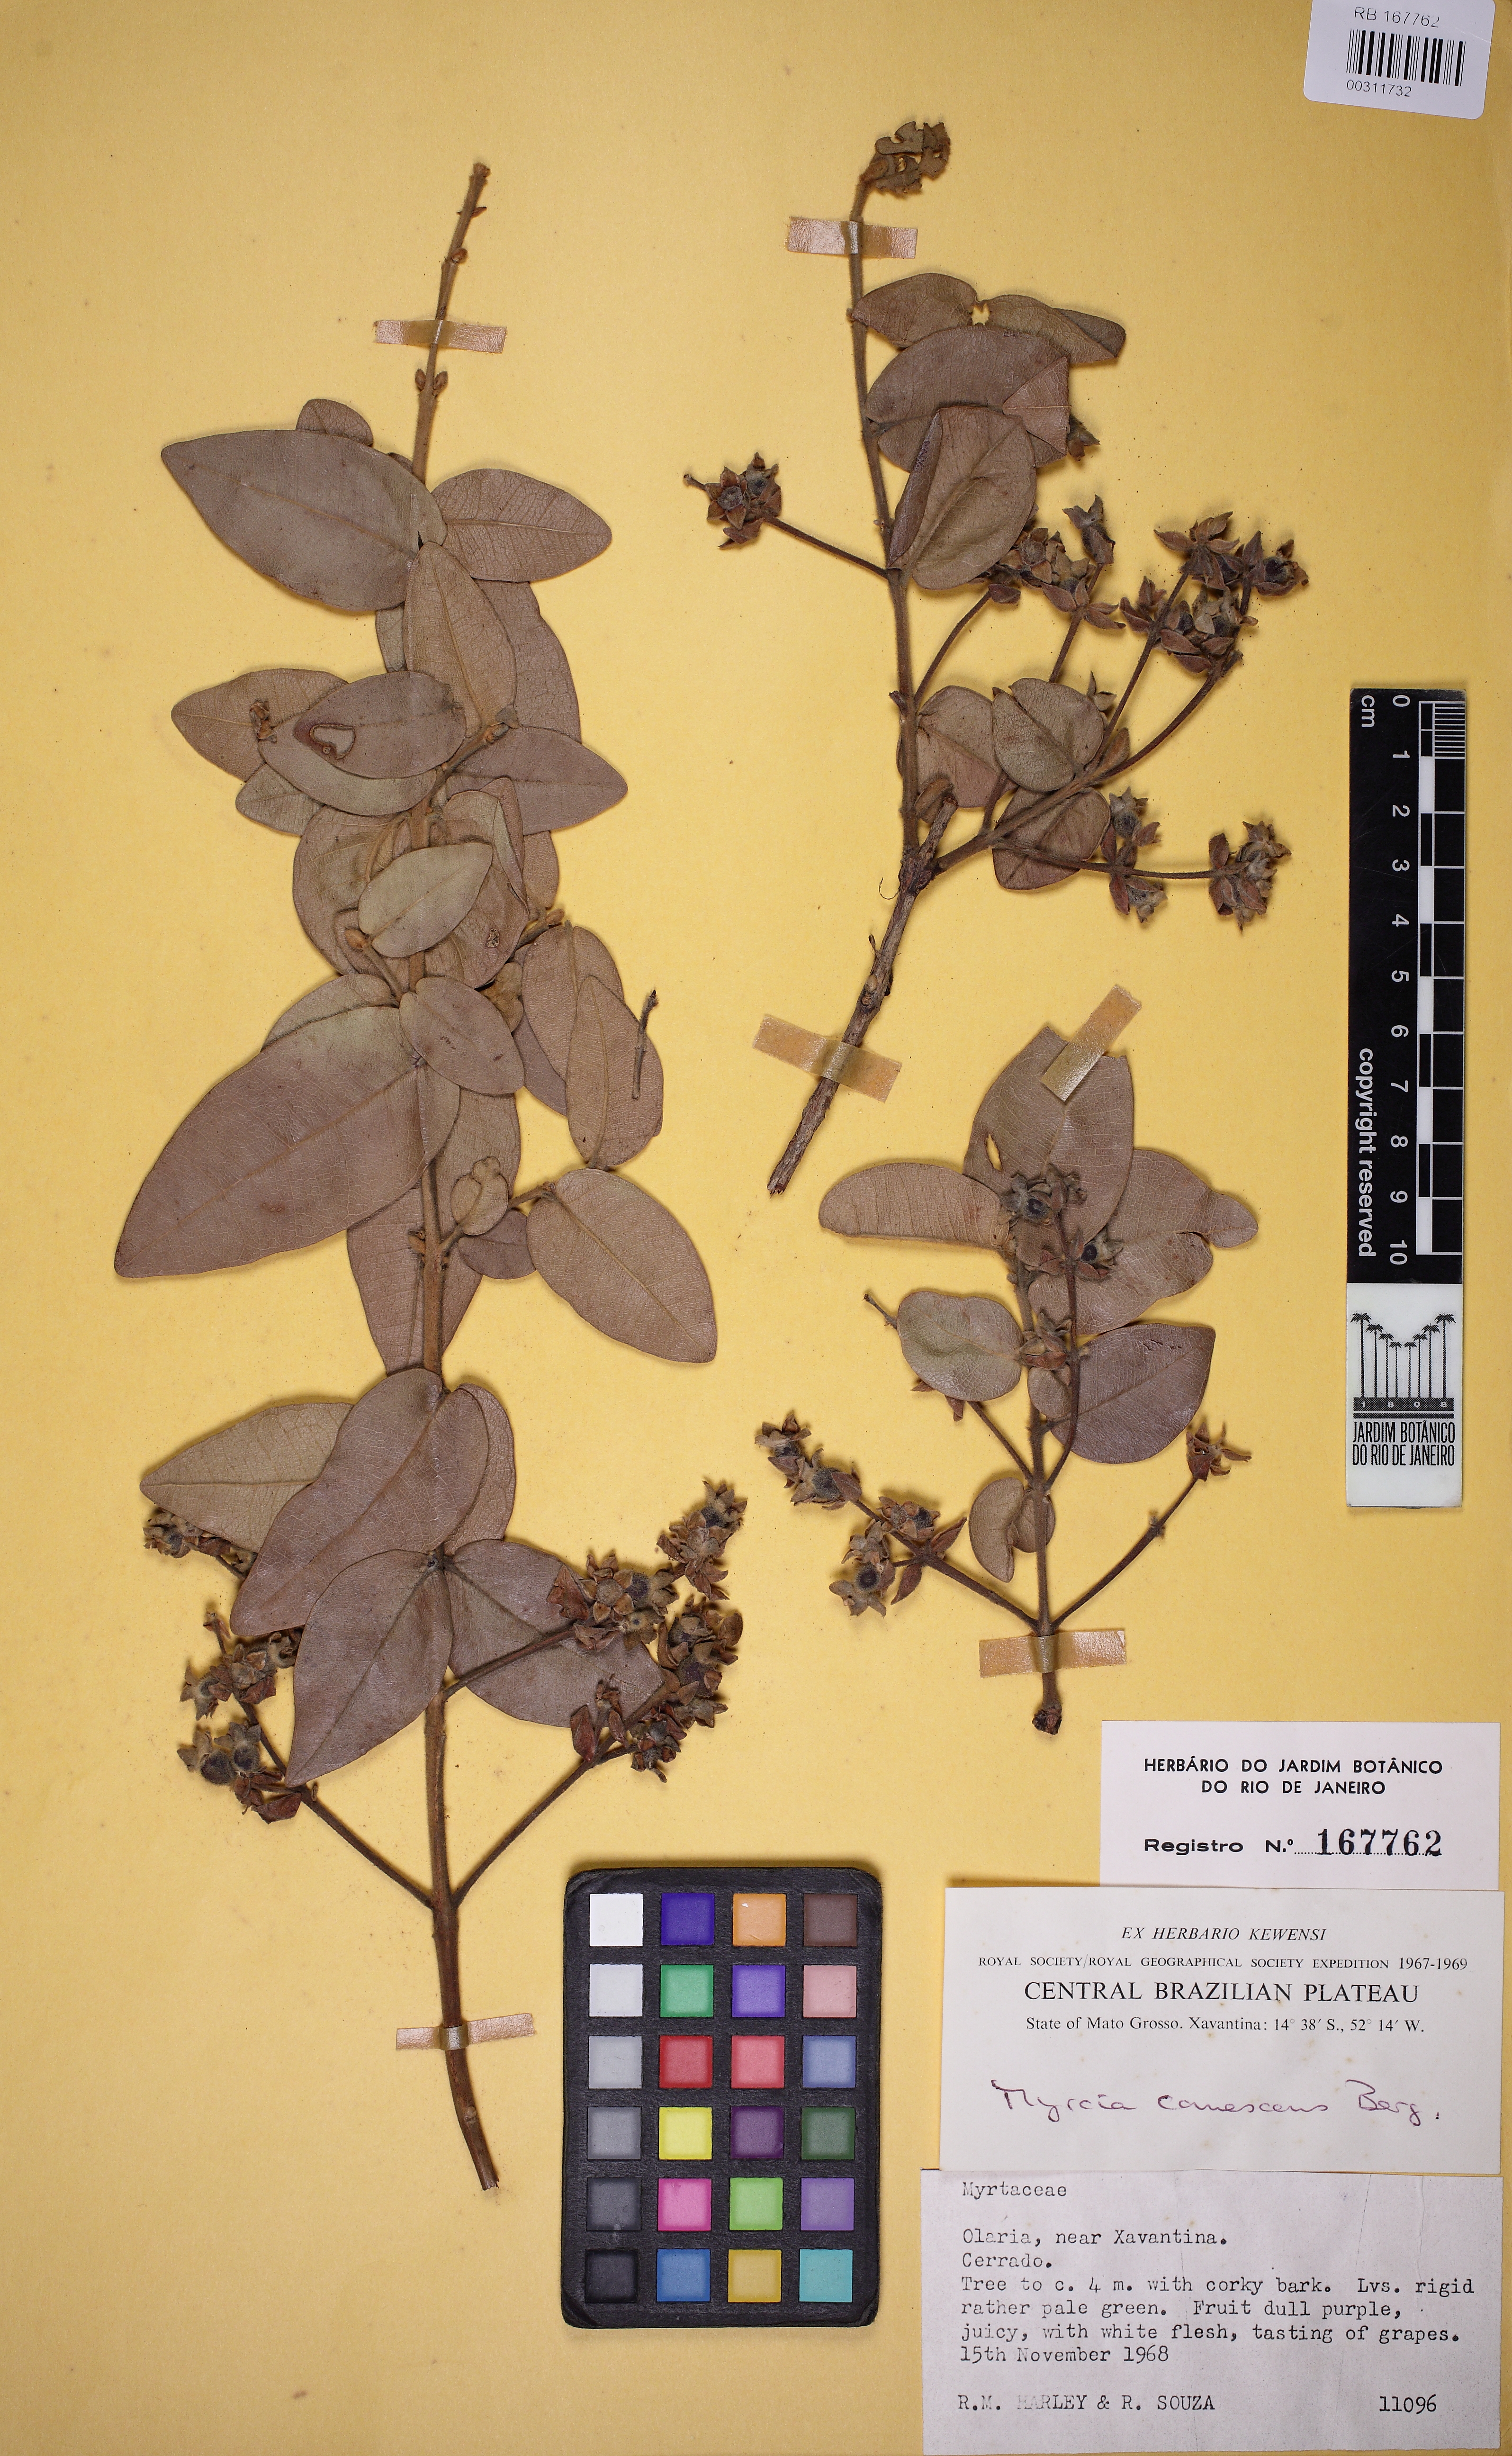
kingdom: Plantae
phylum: Tracheophyta
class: Magnoliopsida
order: Myrtales
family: Myrtaceae
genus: Myrcia
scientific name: Myrcia canescens
